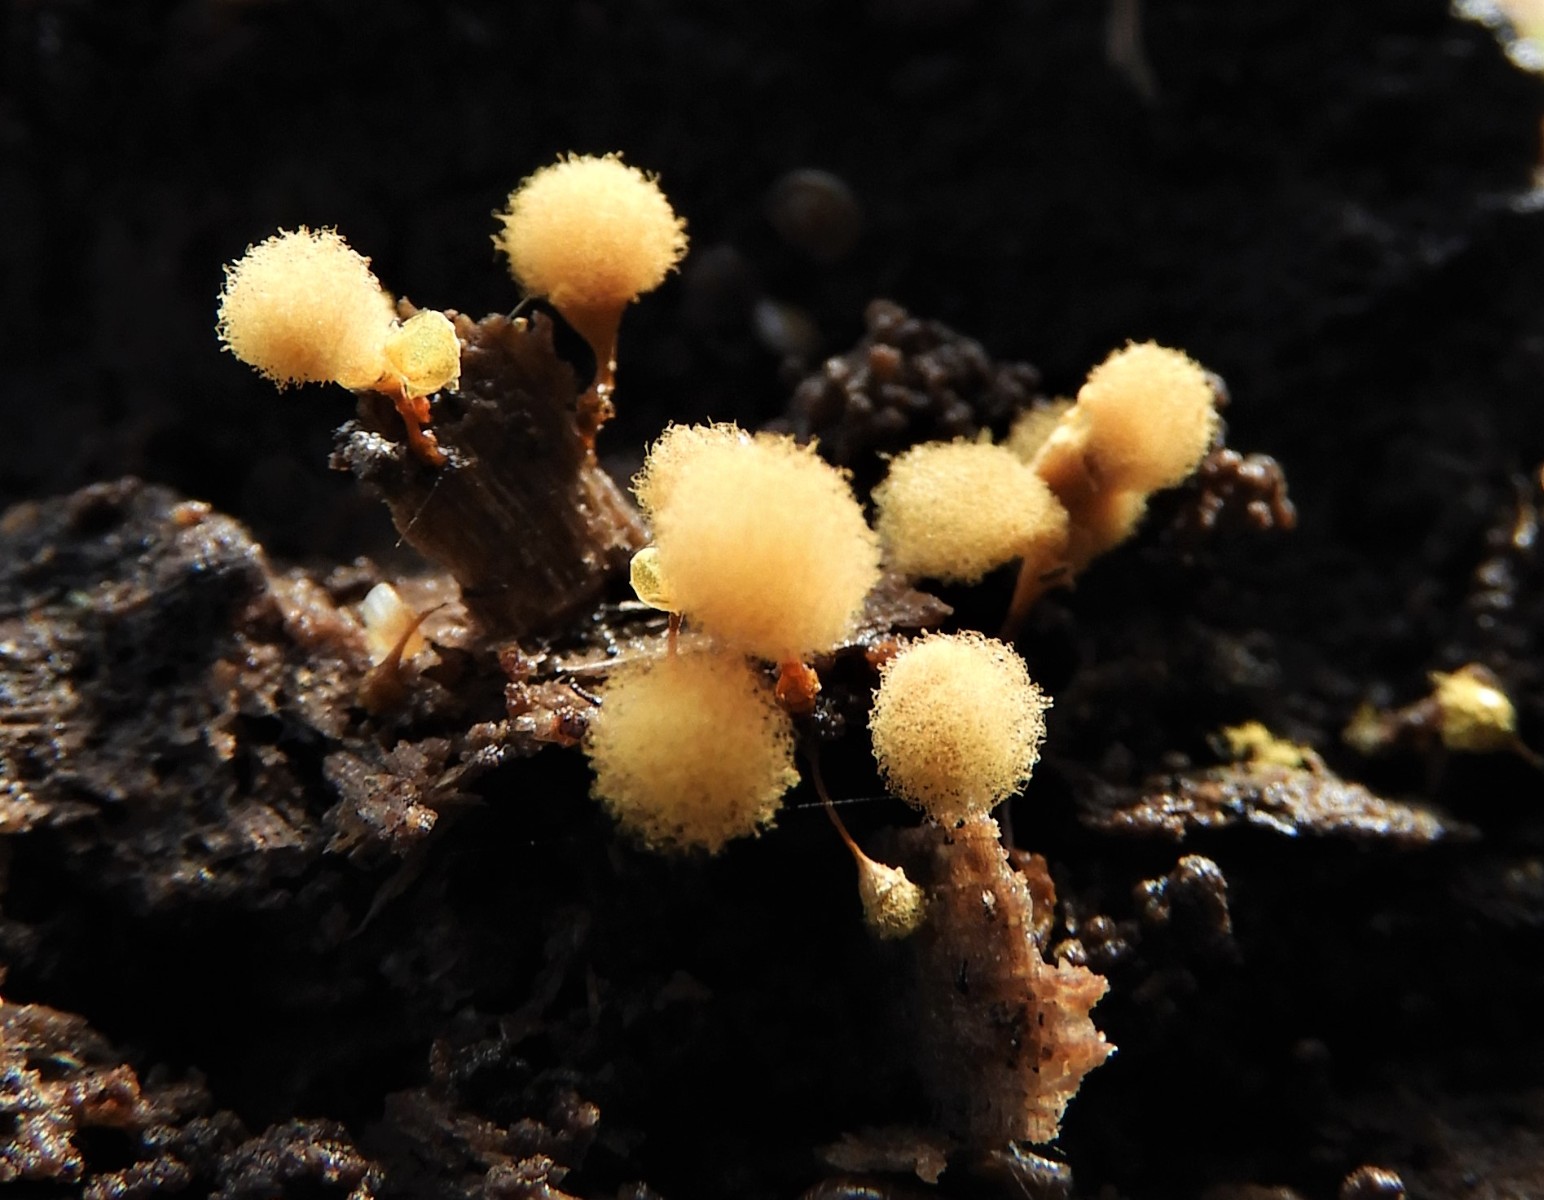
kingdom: Protozoa
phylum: Mycetozoa
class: Myxomycetes
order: Trichiales
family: Arcyriaceae
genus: Hemitrichia
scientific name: Hemitrichia calyculata
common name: Push pin slime mold
